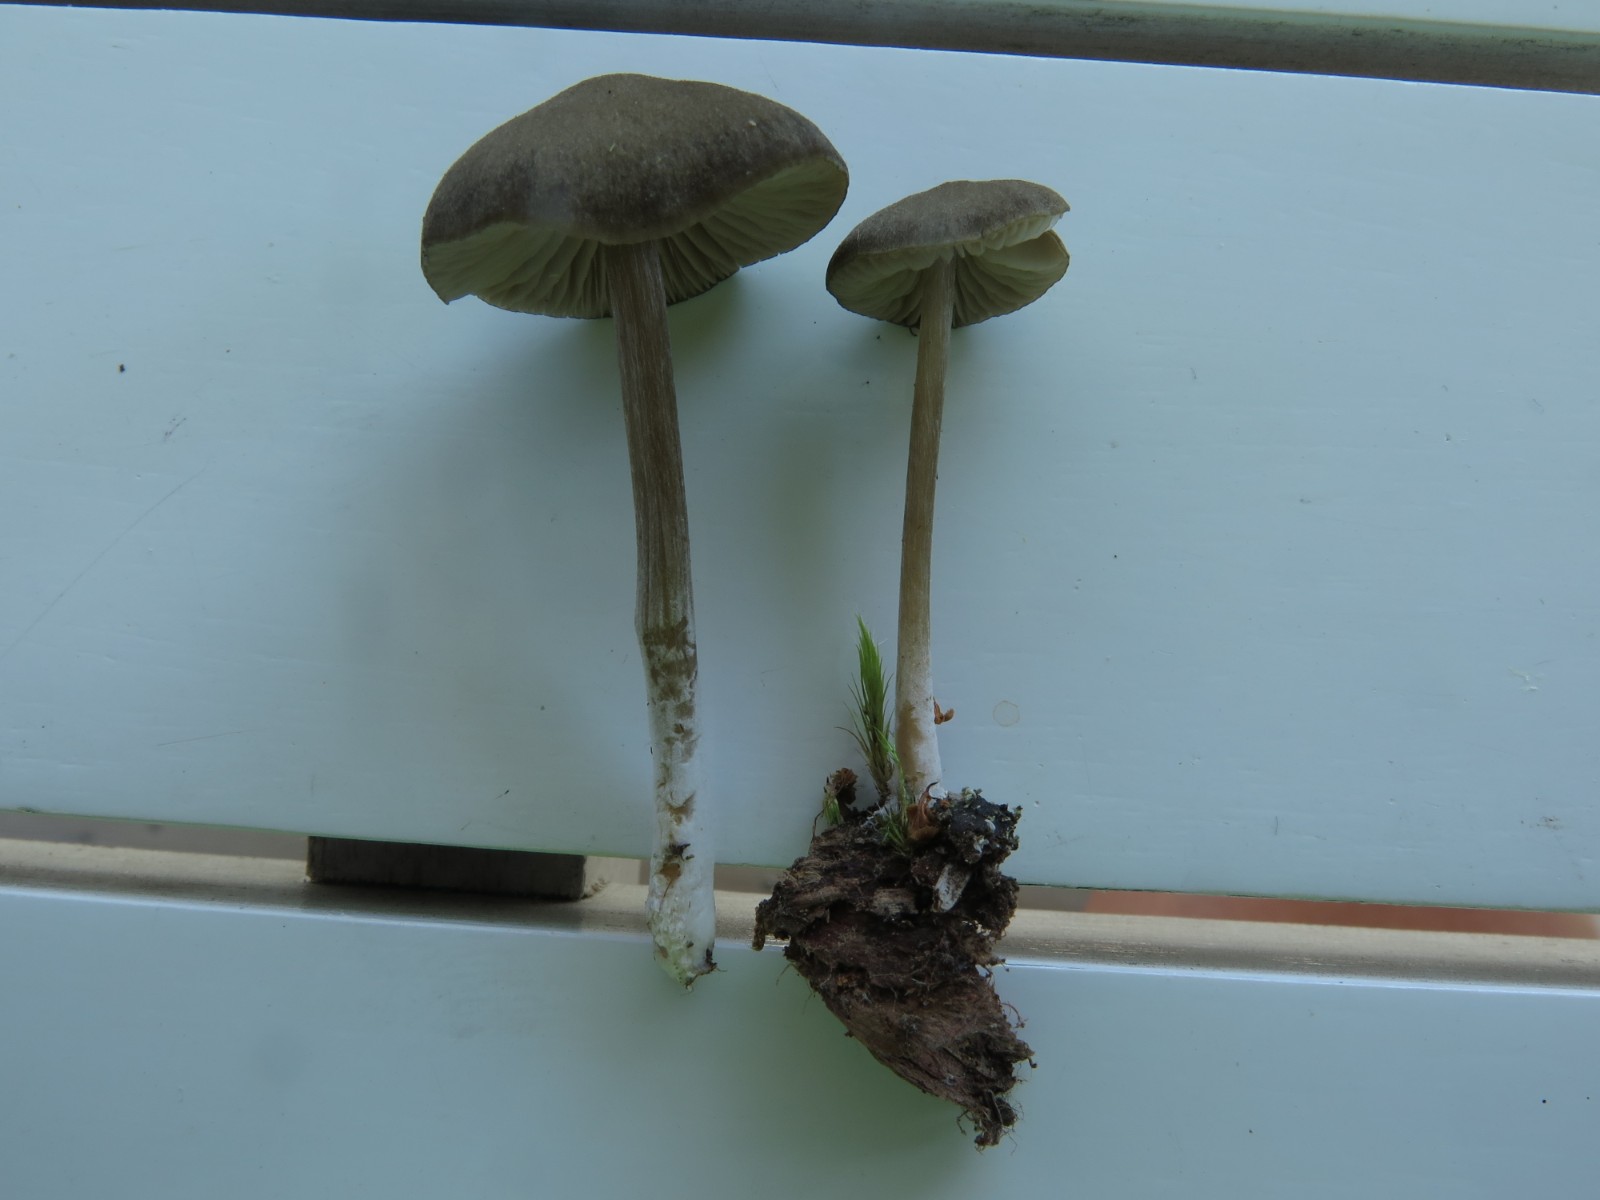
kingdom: Fungi
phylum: Basidiomycota
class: Agaricomycetes
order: Agaricales
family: Entolomataceae
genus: Entoloma
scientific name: Entoloma
